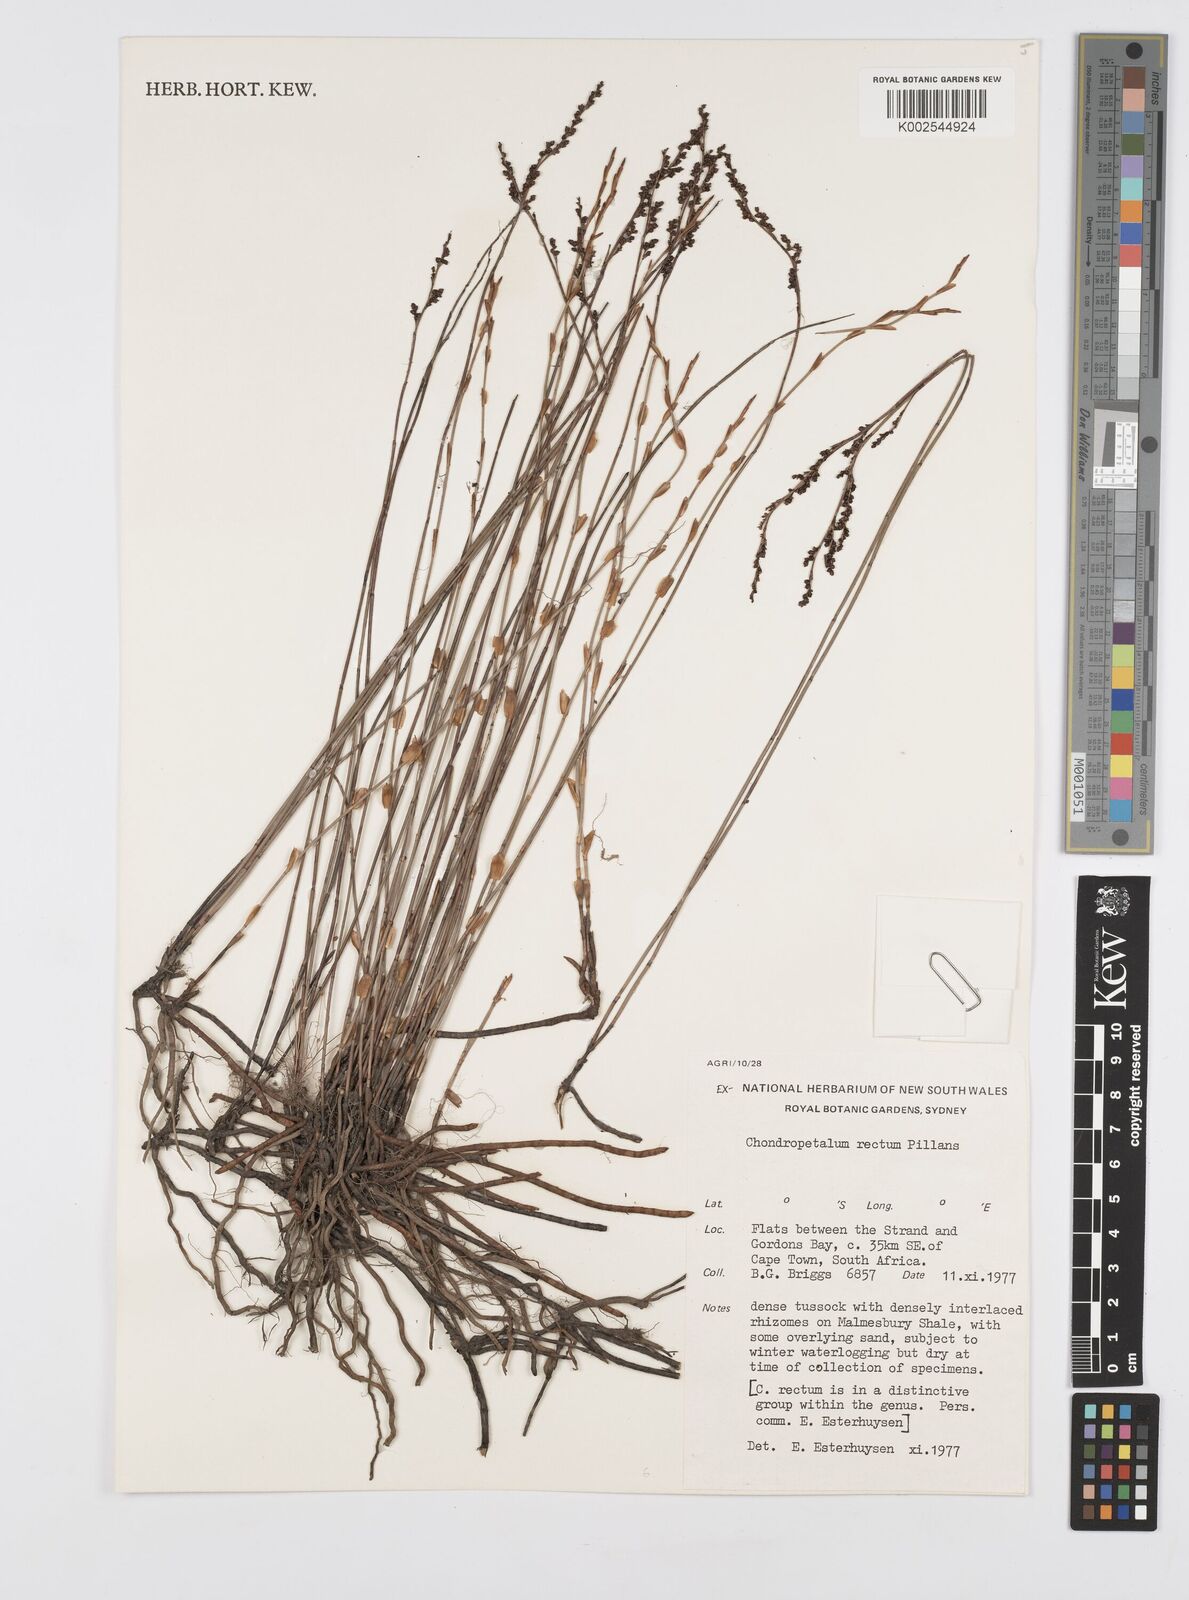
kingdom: Plantae
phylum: Tracheophyta
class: Liliopsida
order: Poales
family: Restionaceae
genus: Elegia
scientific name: Elegia recta
